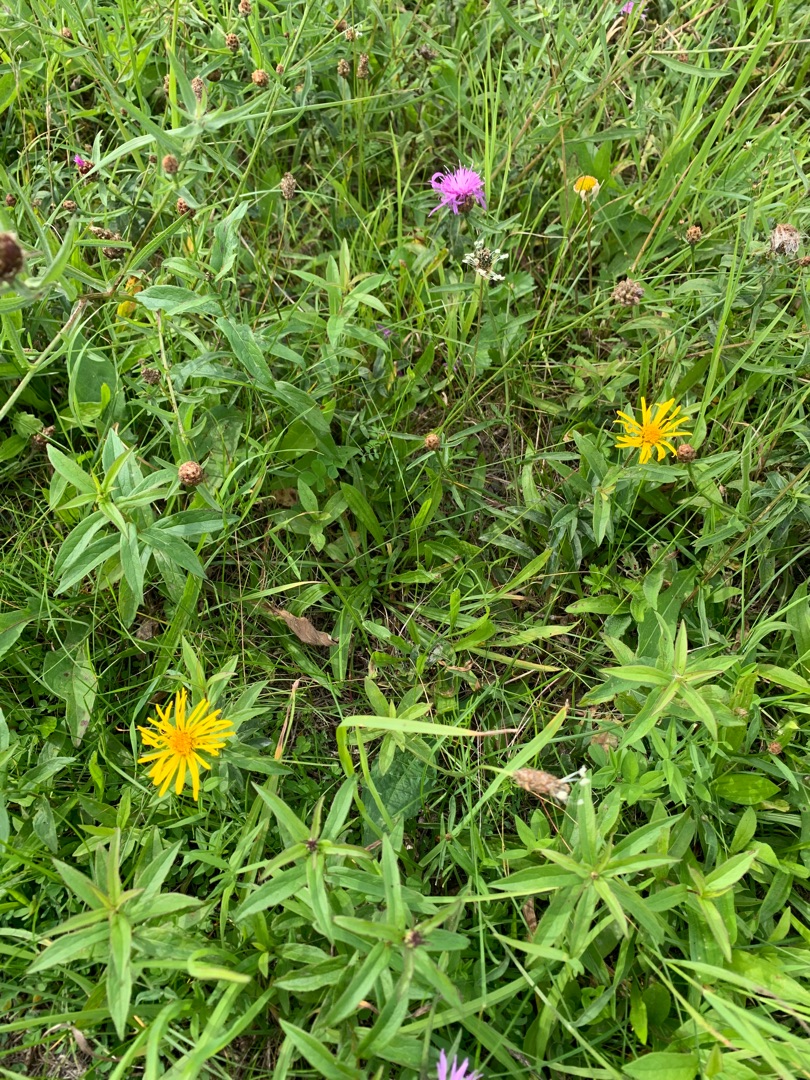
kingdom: Plantae
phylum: Tracheophyta
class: Magnoliopsida
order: Asterales
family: Asteraceae
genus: Pentanema
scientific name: Pentanema salicinum
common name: Pile-alant
